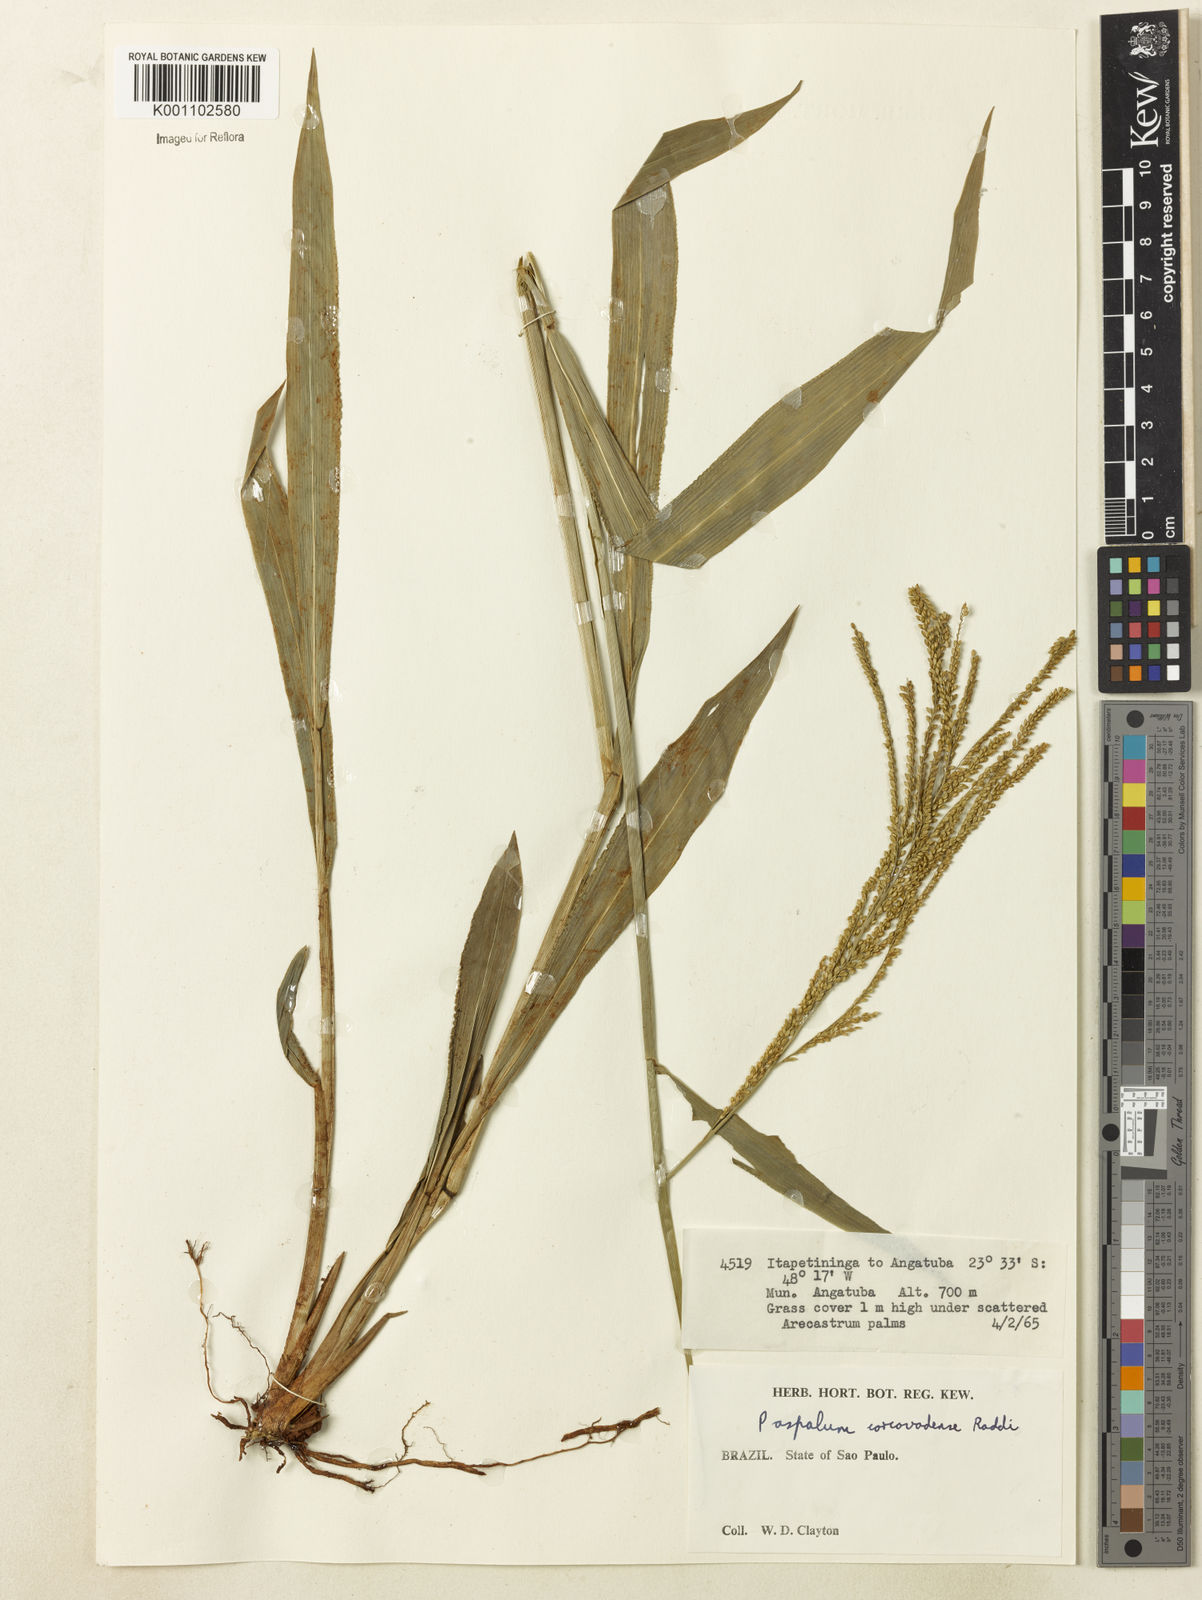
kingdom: Plantae
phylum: Tracheophyta
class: Liliopsida
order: Poales
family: Poaceae
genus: Paspalum
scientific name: Paspalum corcovadense
